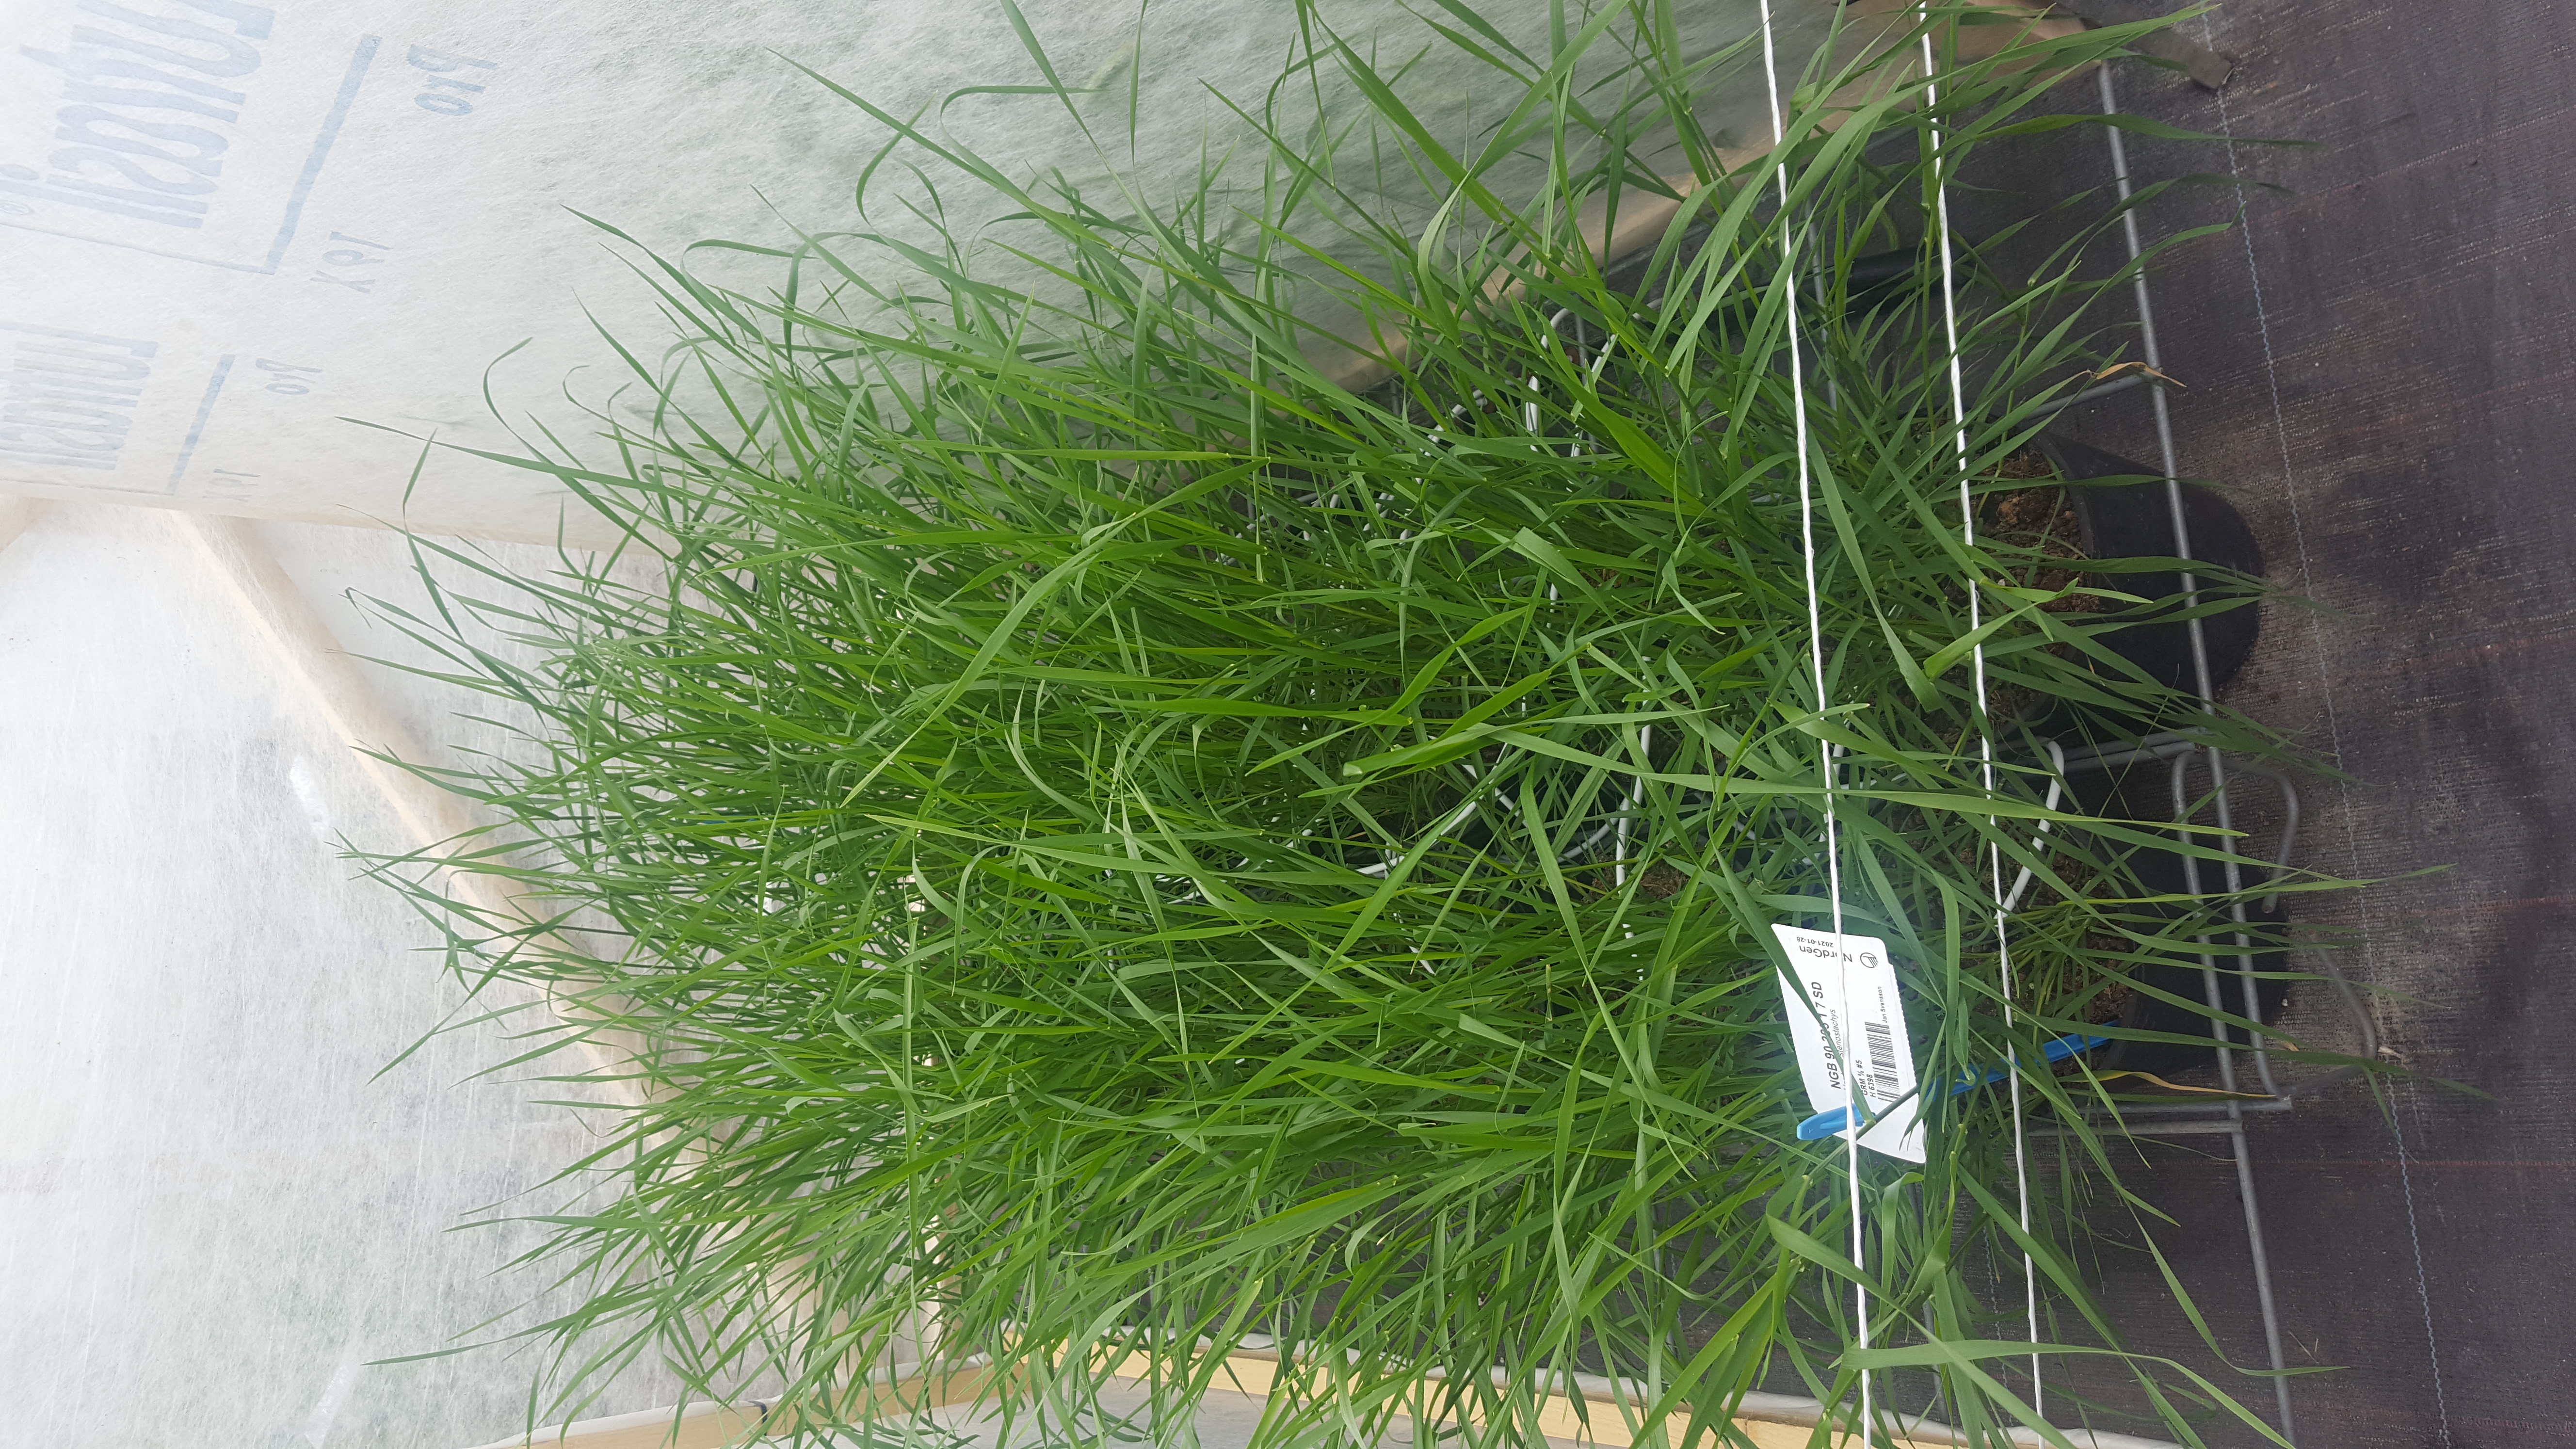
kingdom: Plantae
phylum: Tracheophyta
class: Liliopsida
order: Poales
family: Poaceae
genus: Hordeum
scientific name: Hordeum stenostachys
